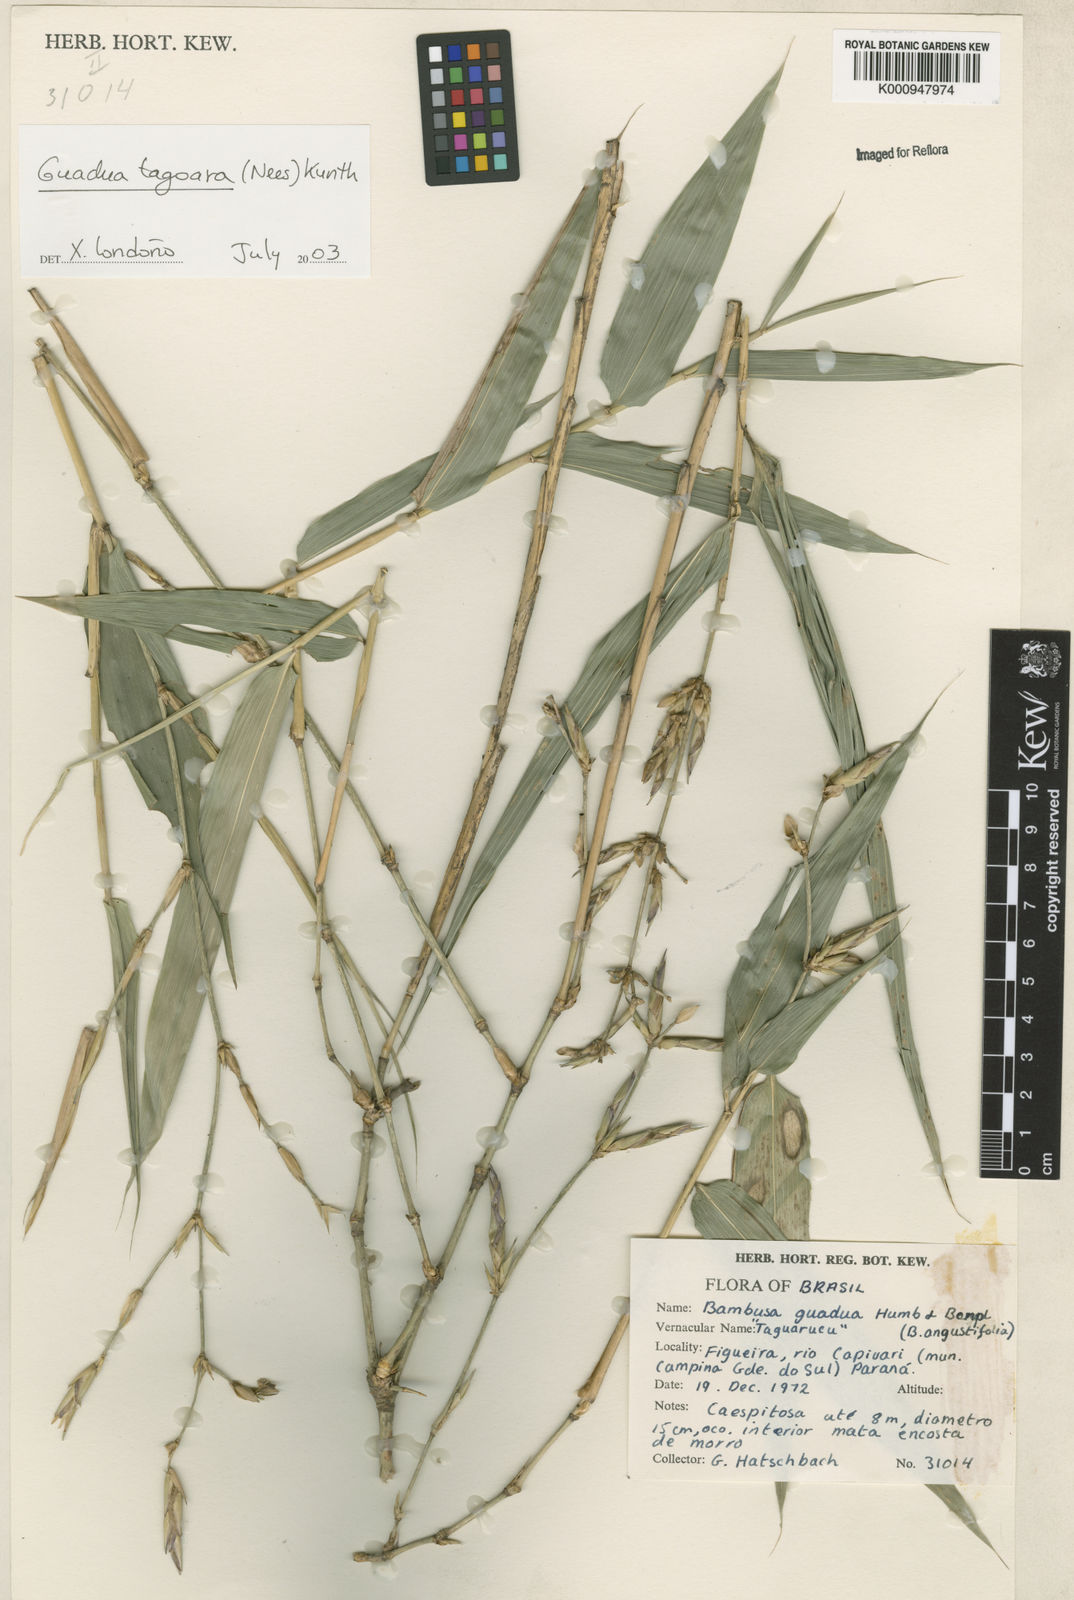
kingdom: Plantae
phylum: Tracheophyta
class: Liliopsida
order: Poales
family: Poaceae
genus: Guadua
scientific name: Guadua tagoara
